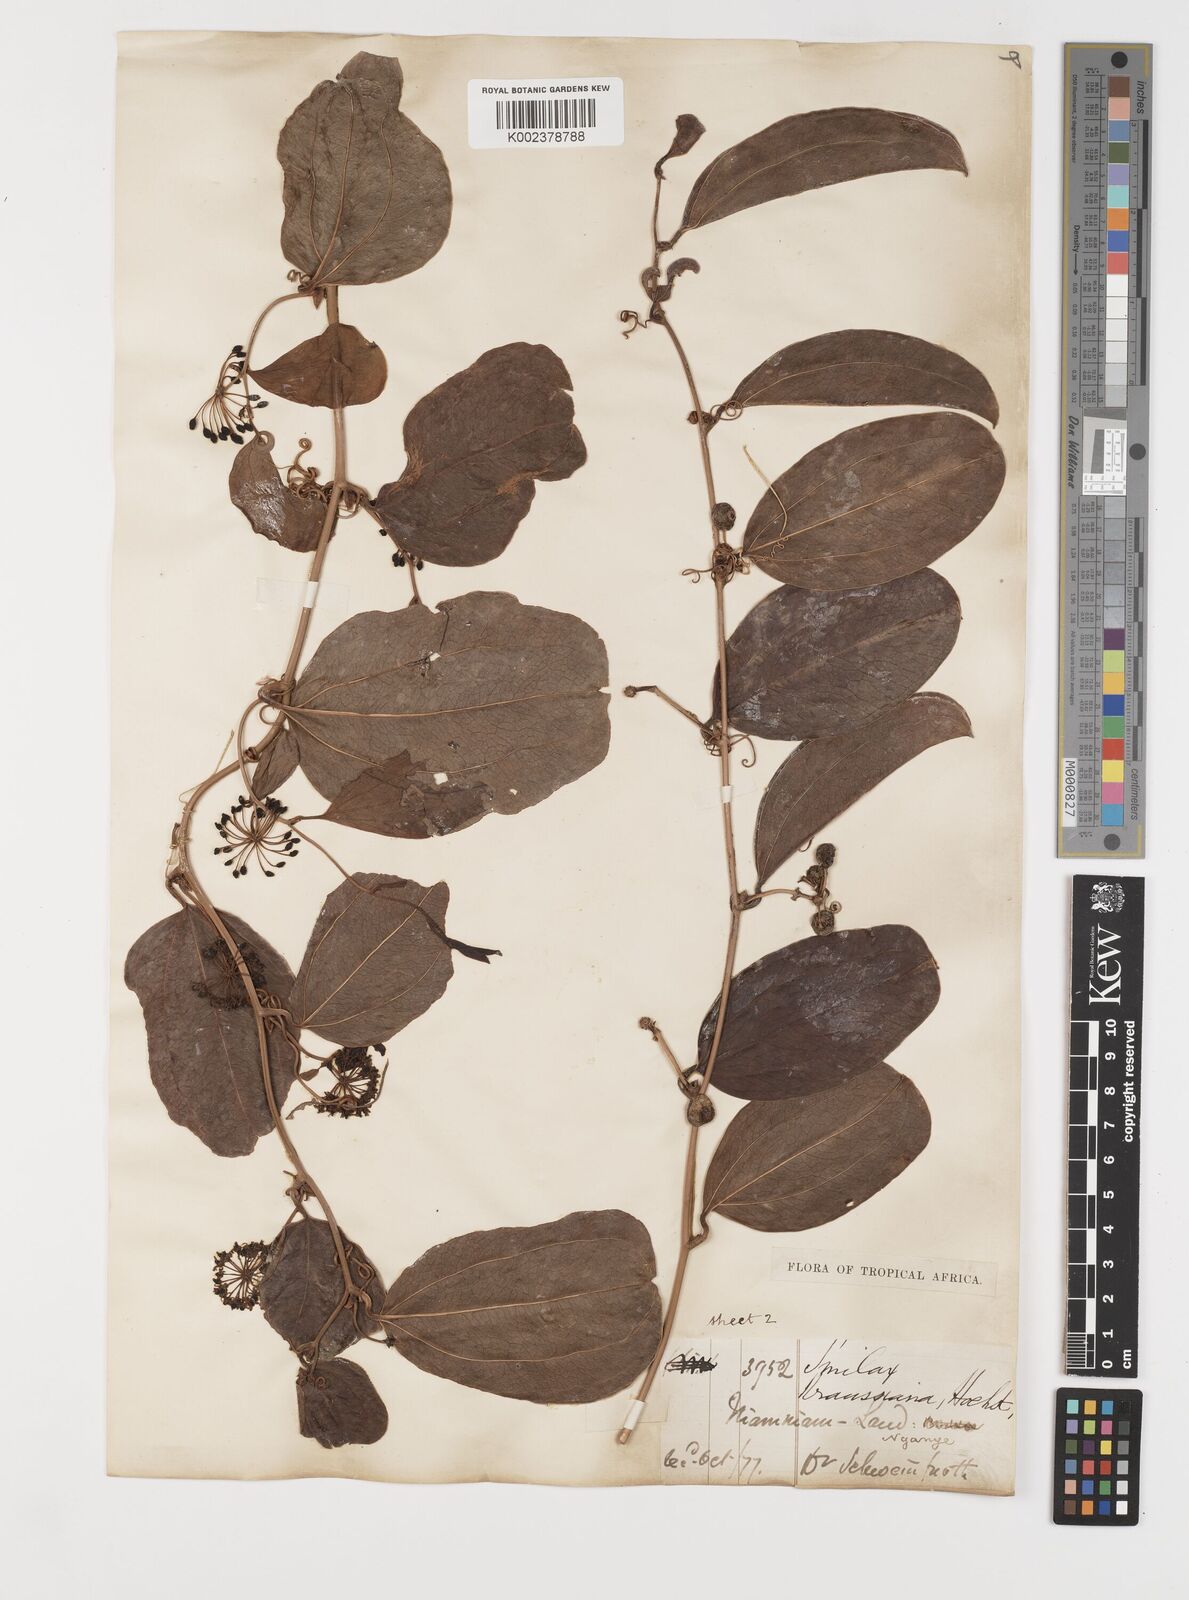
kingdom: Plantae
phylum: Tracheophyta
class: Liliopsida
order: Liliales
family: Smilacaceae
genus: Smilax
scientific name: Smilax anceps
